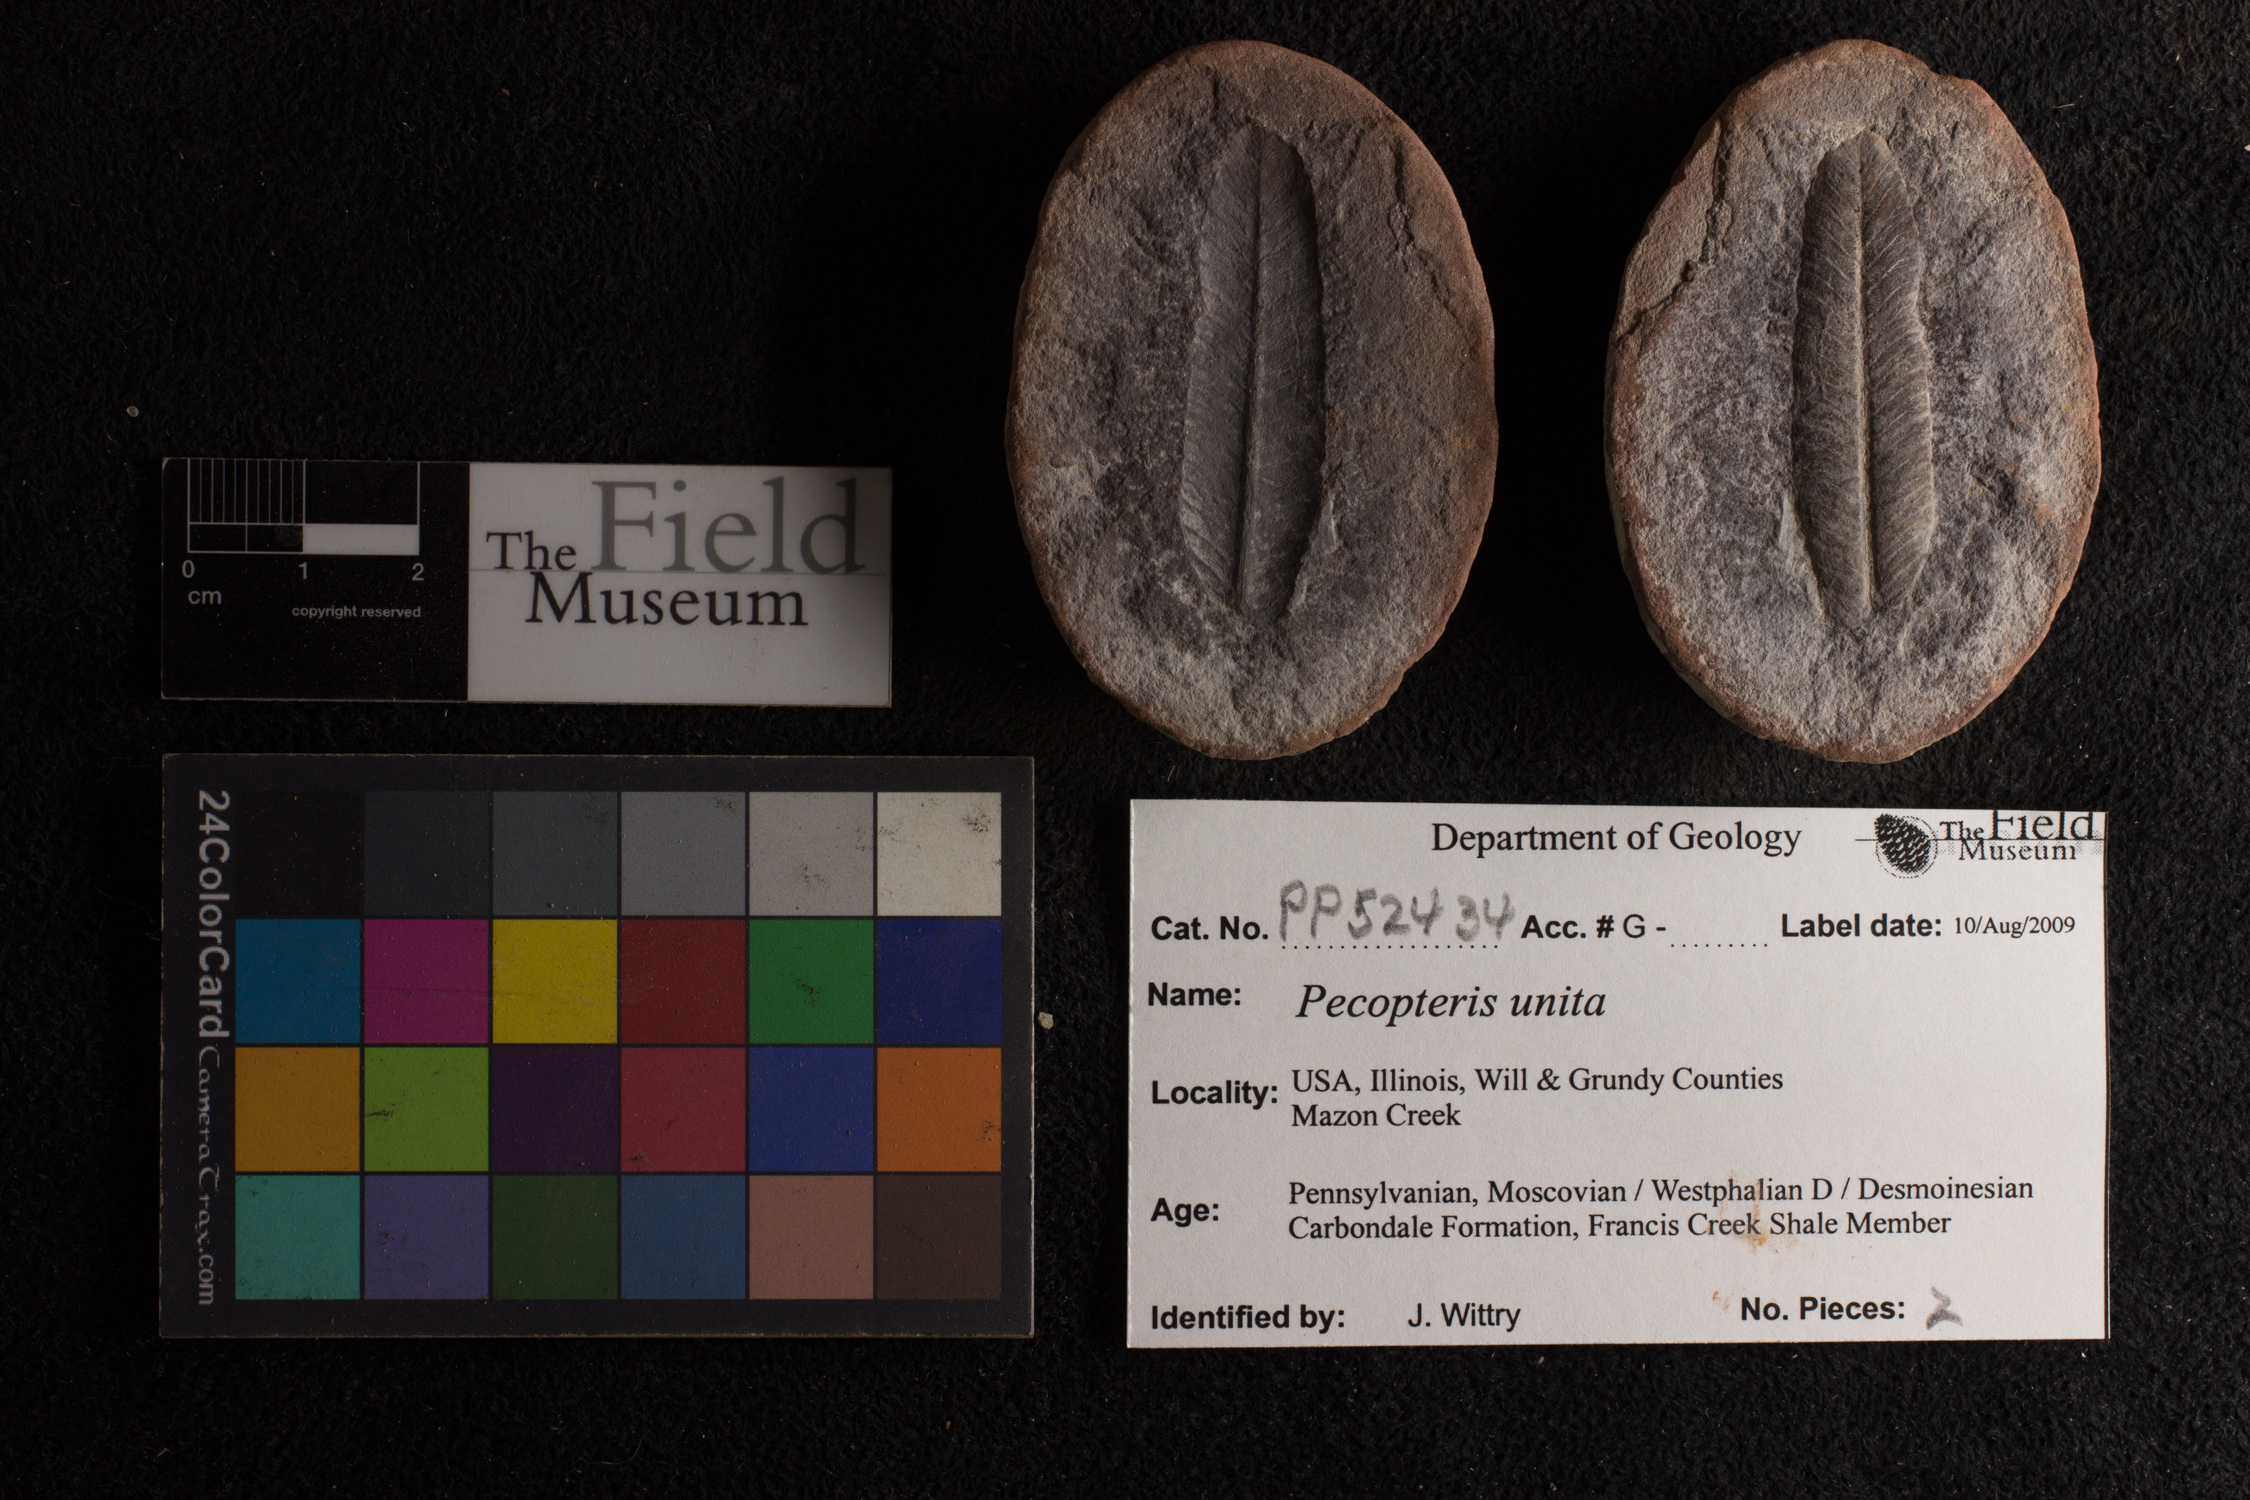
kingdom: Plantae
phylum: Tracheophyta
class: Polypodiopsida
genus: Diplazites
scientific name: Diplazites
